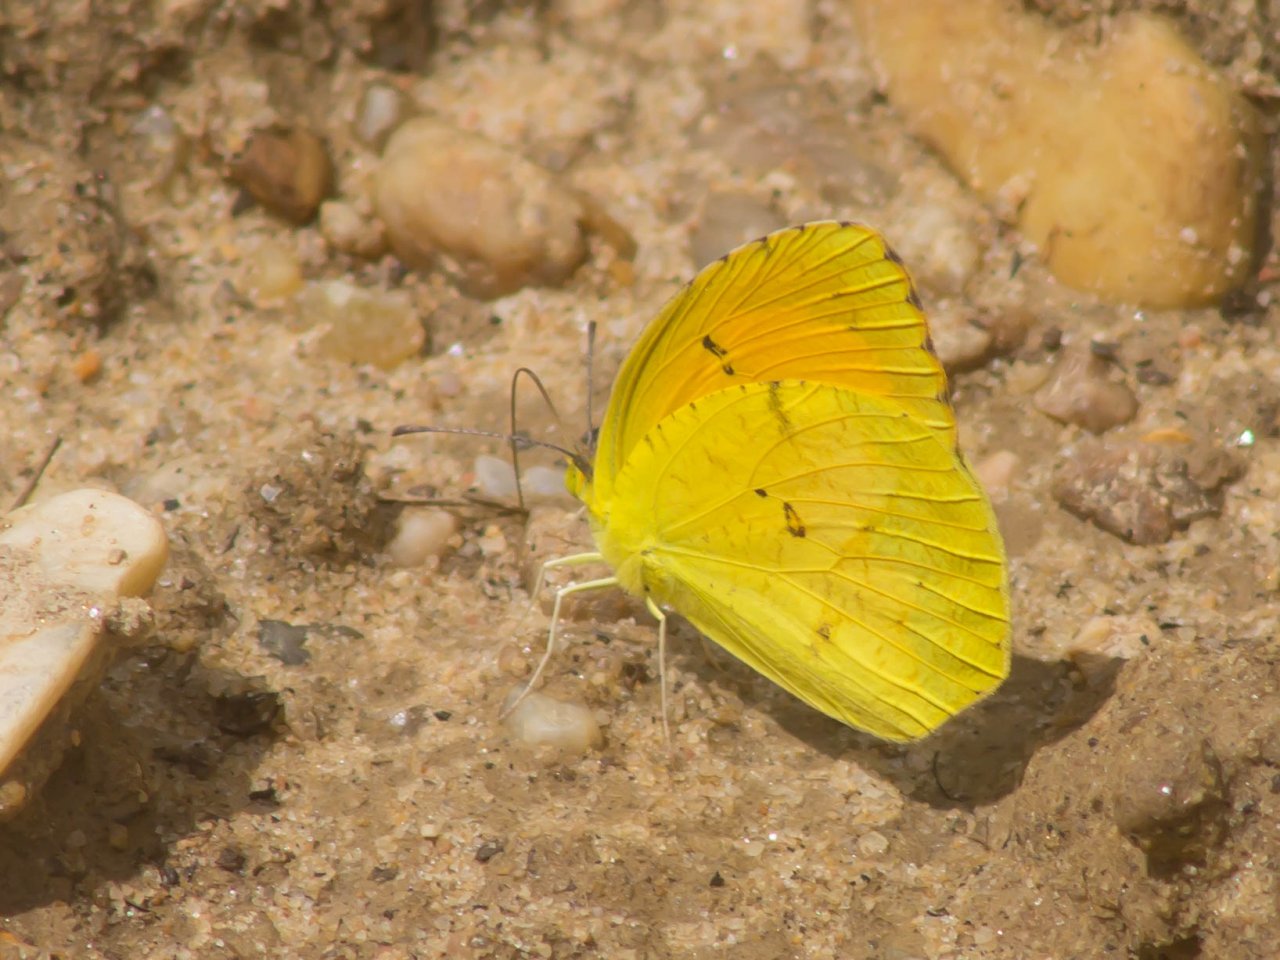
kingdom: Animalia
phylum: Arthropoda
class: Insecta
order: Lepidoptera
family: Pieridae
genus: Abaeis
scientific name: Abaeis nicippe
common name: Sleepy Orange
